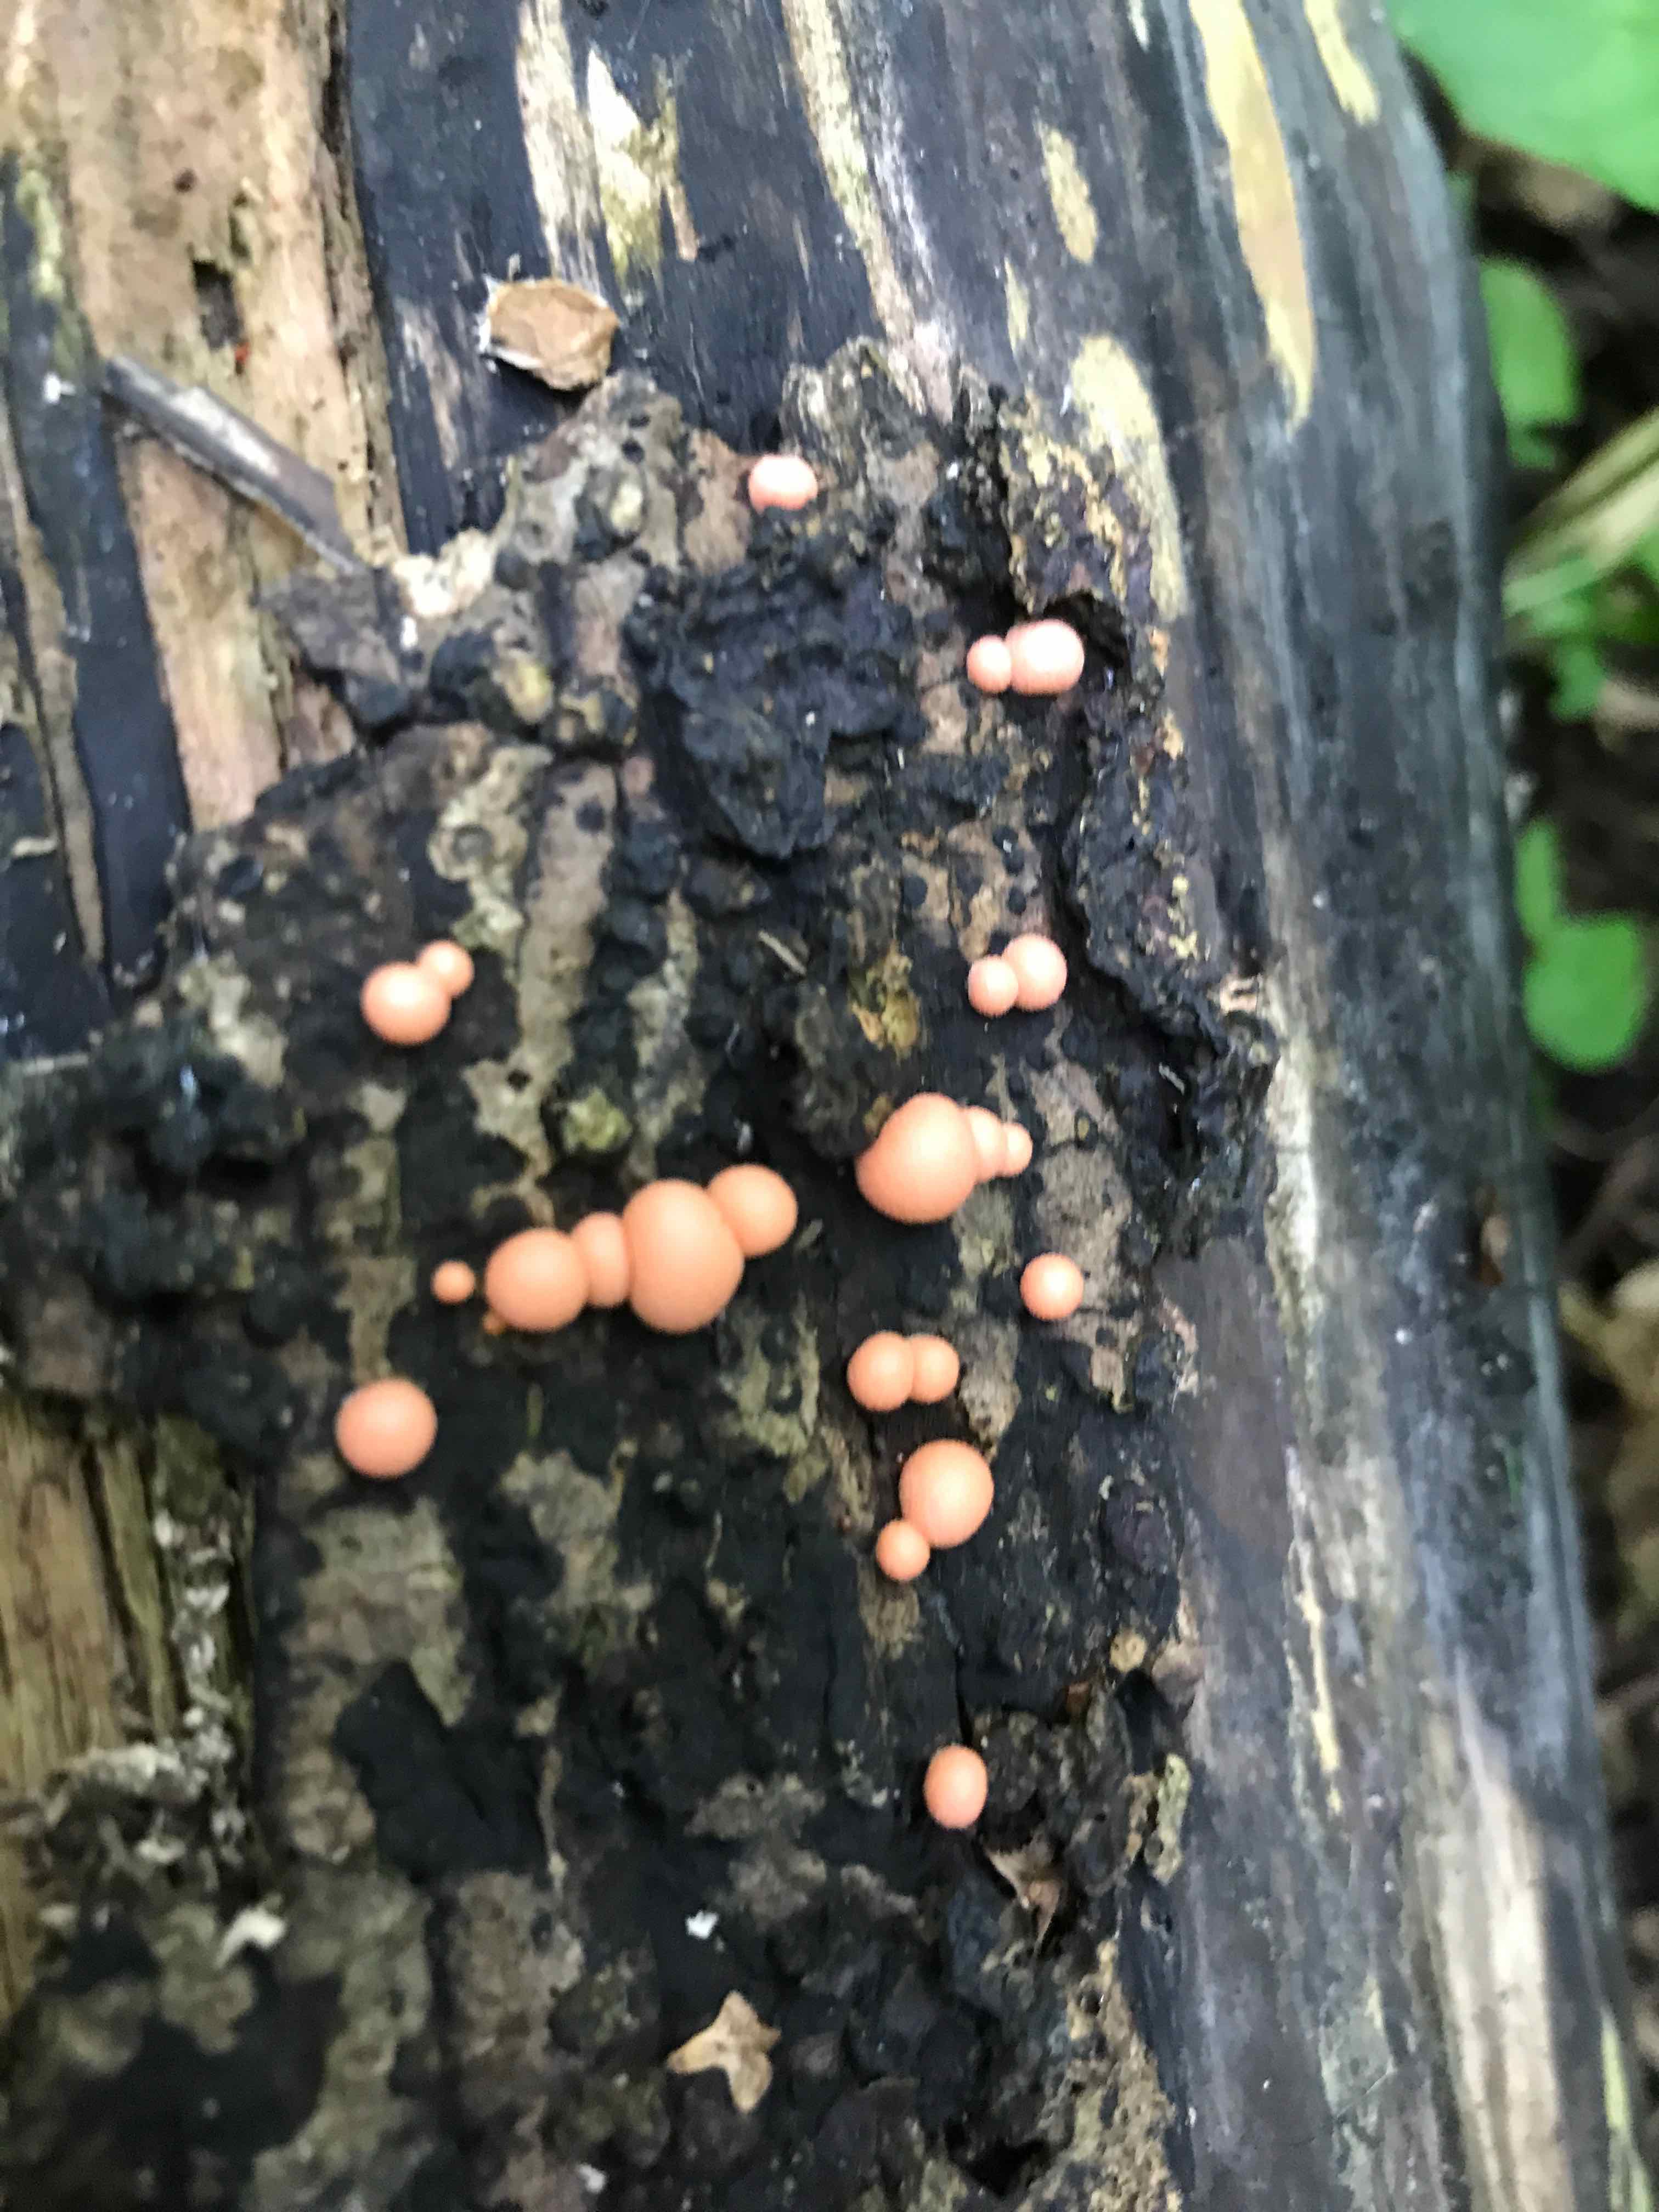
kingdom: Protozoa
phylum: Mycetozoa
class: Myxomycetes
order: Cribrariales
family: Tubiferaceae
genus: Lycogala
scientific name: Lycogala epidendrum
